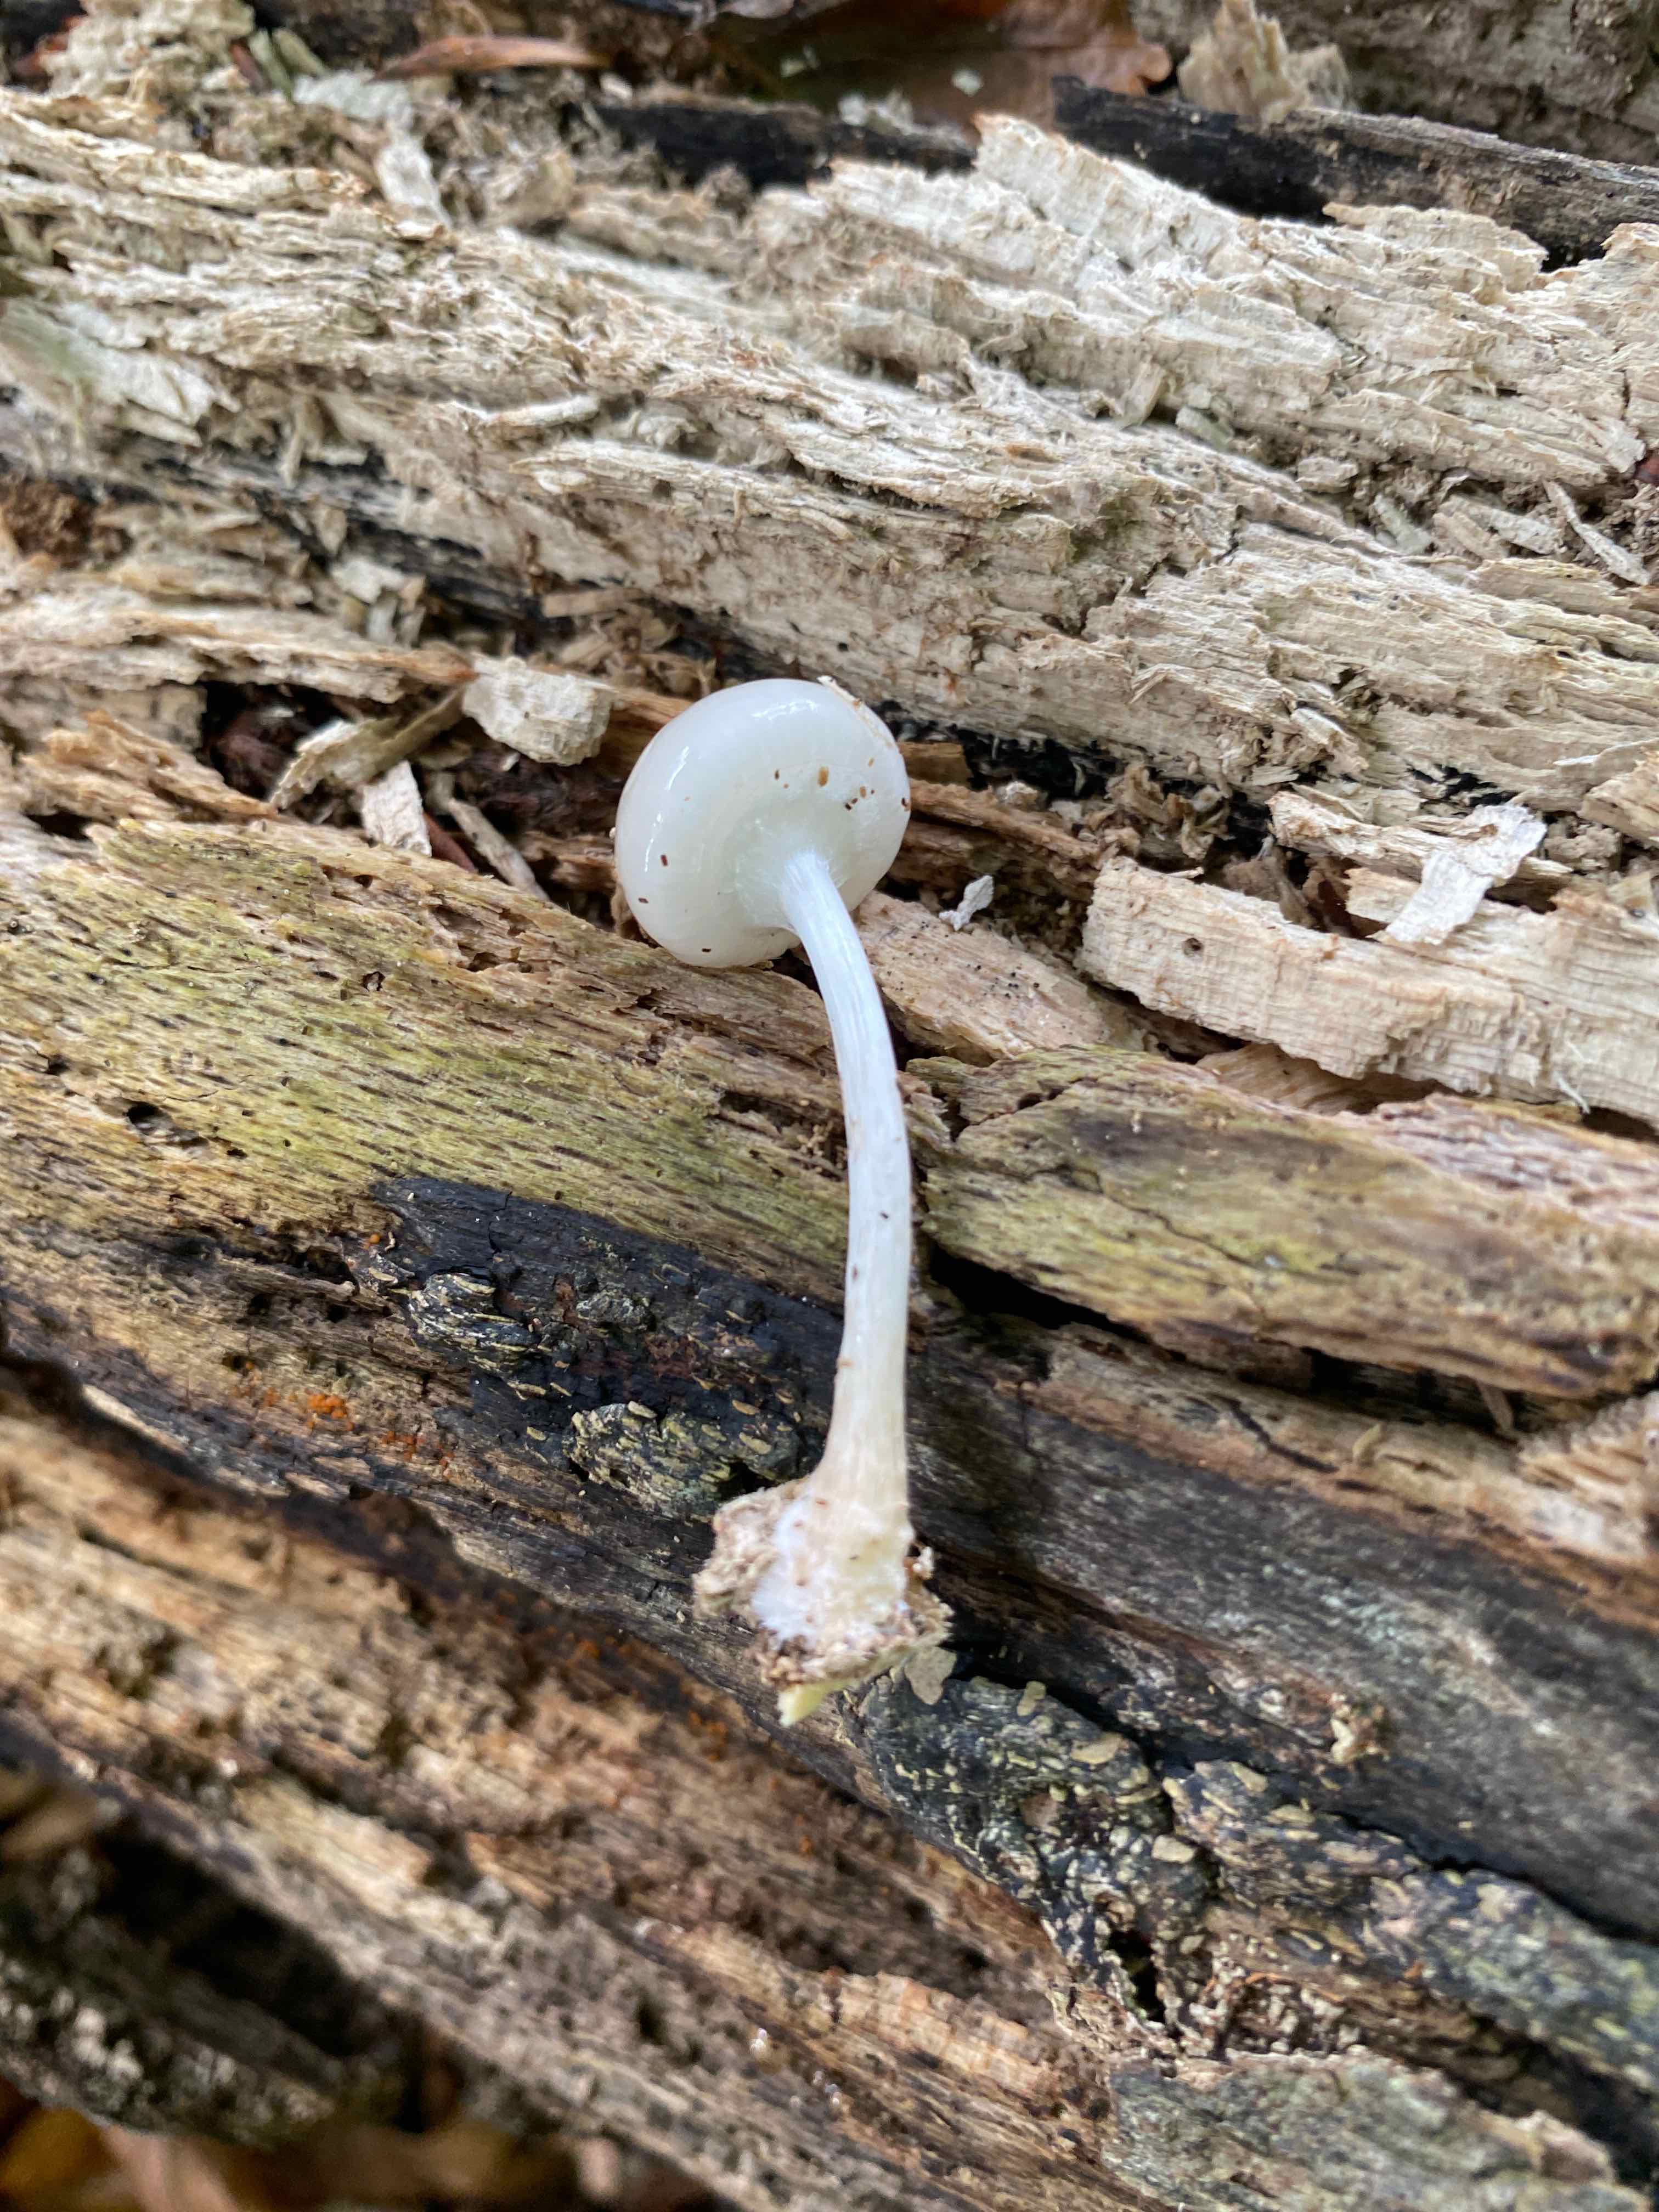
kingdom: Fungi
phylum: Basidiomycota
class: Agaricomycetes
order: Agaricales
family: Physalacriaceae
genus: Mucidula
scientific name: Mucidula mucida
